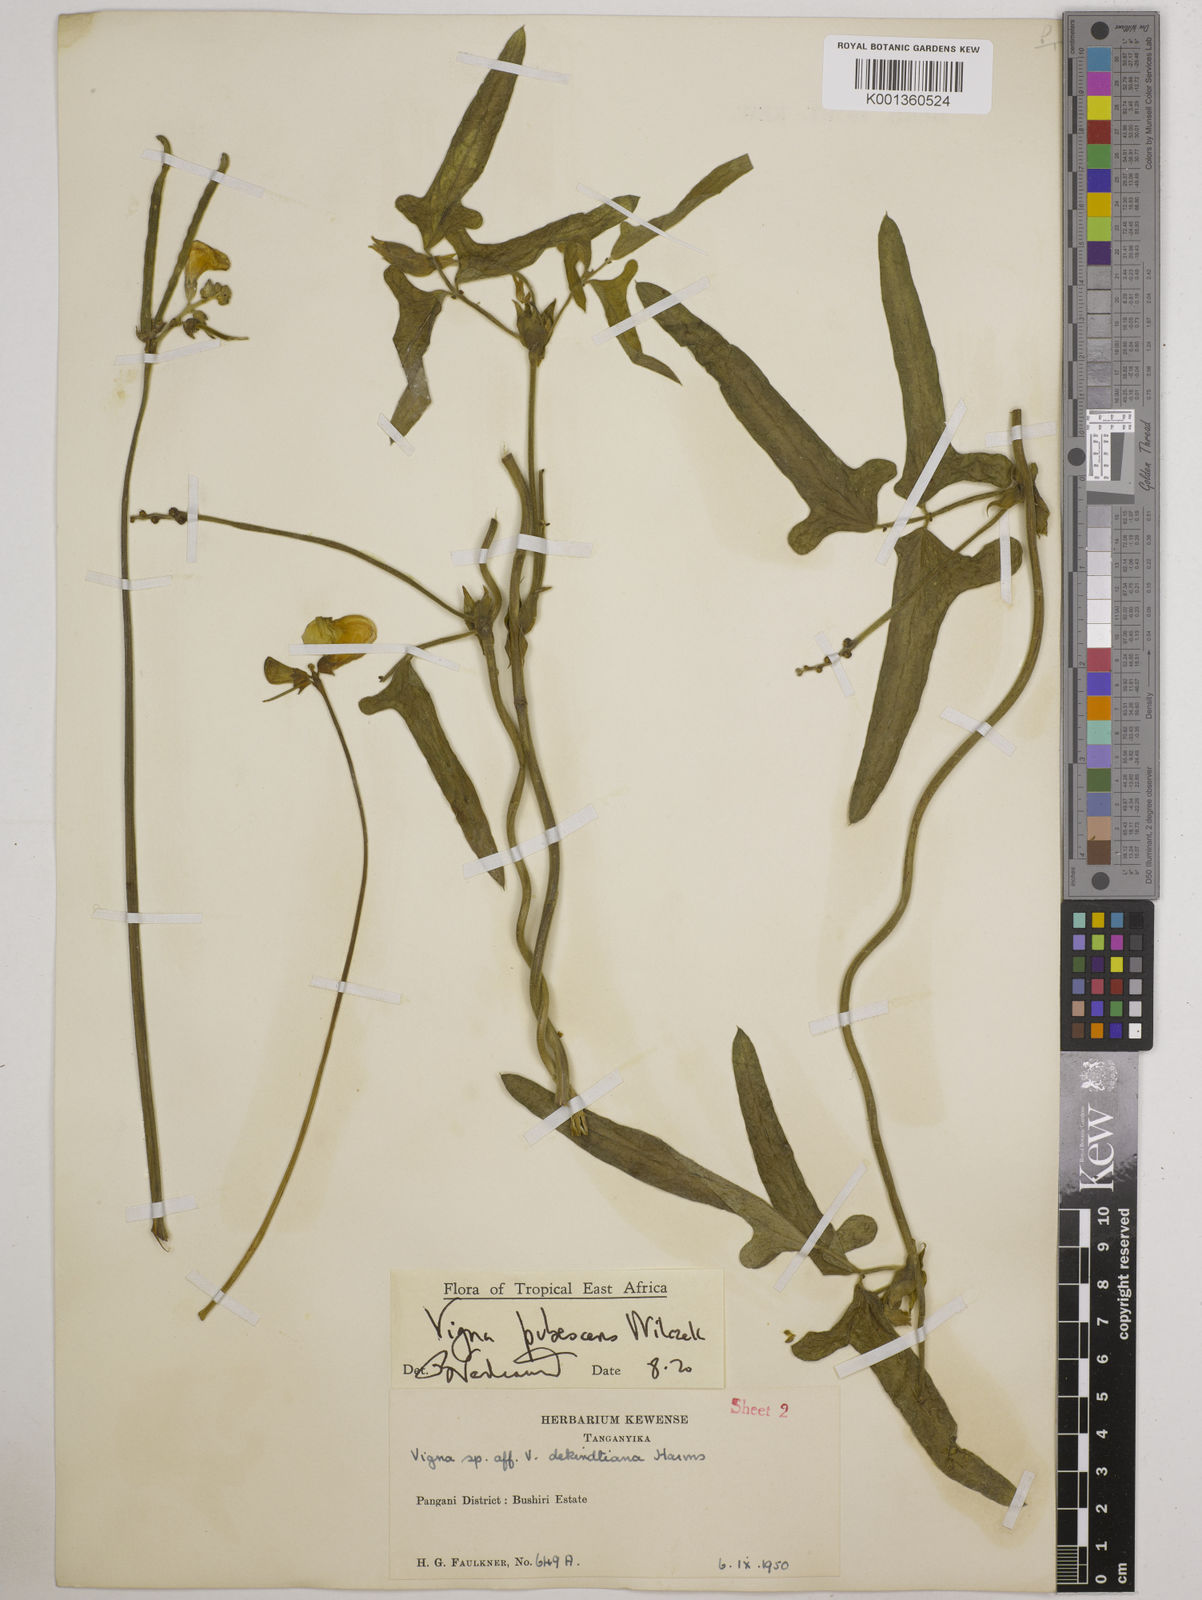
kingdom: Plantae
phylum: Tracheophyta
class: Magnoliopsida
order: Fabales
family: Fabaceae
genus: Vigna
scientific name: Vigna unguiculata
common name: Cowpea
